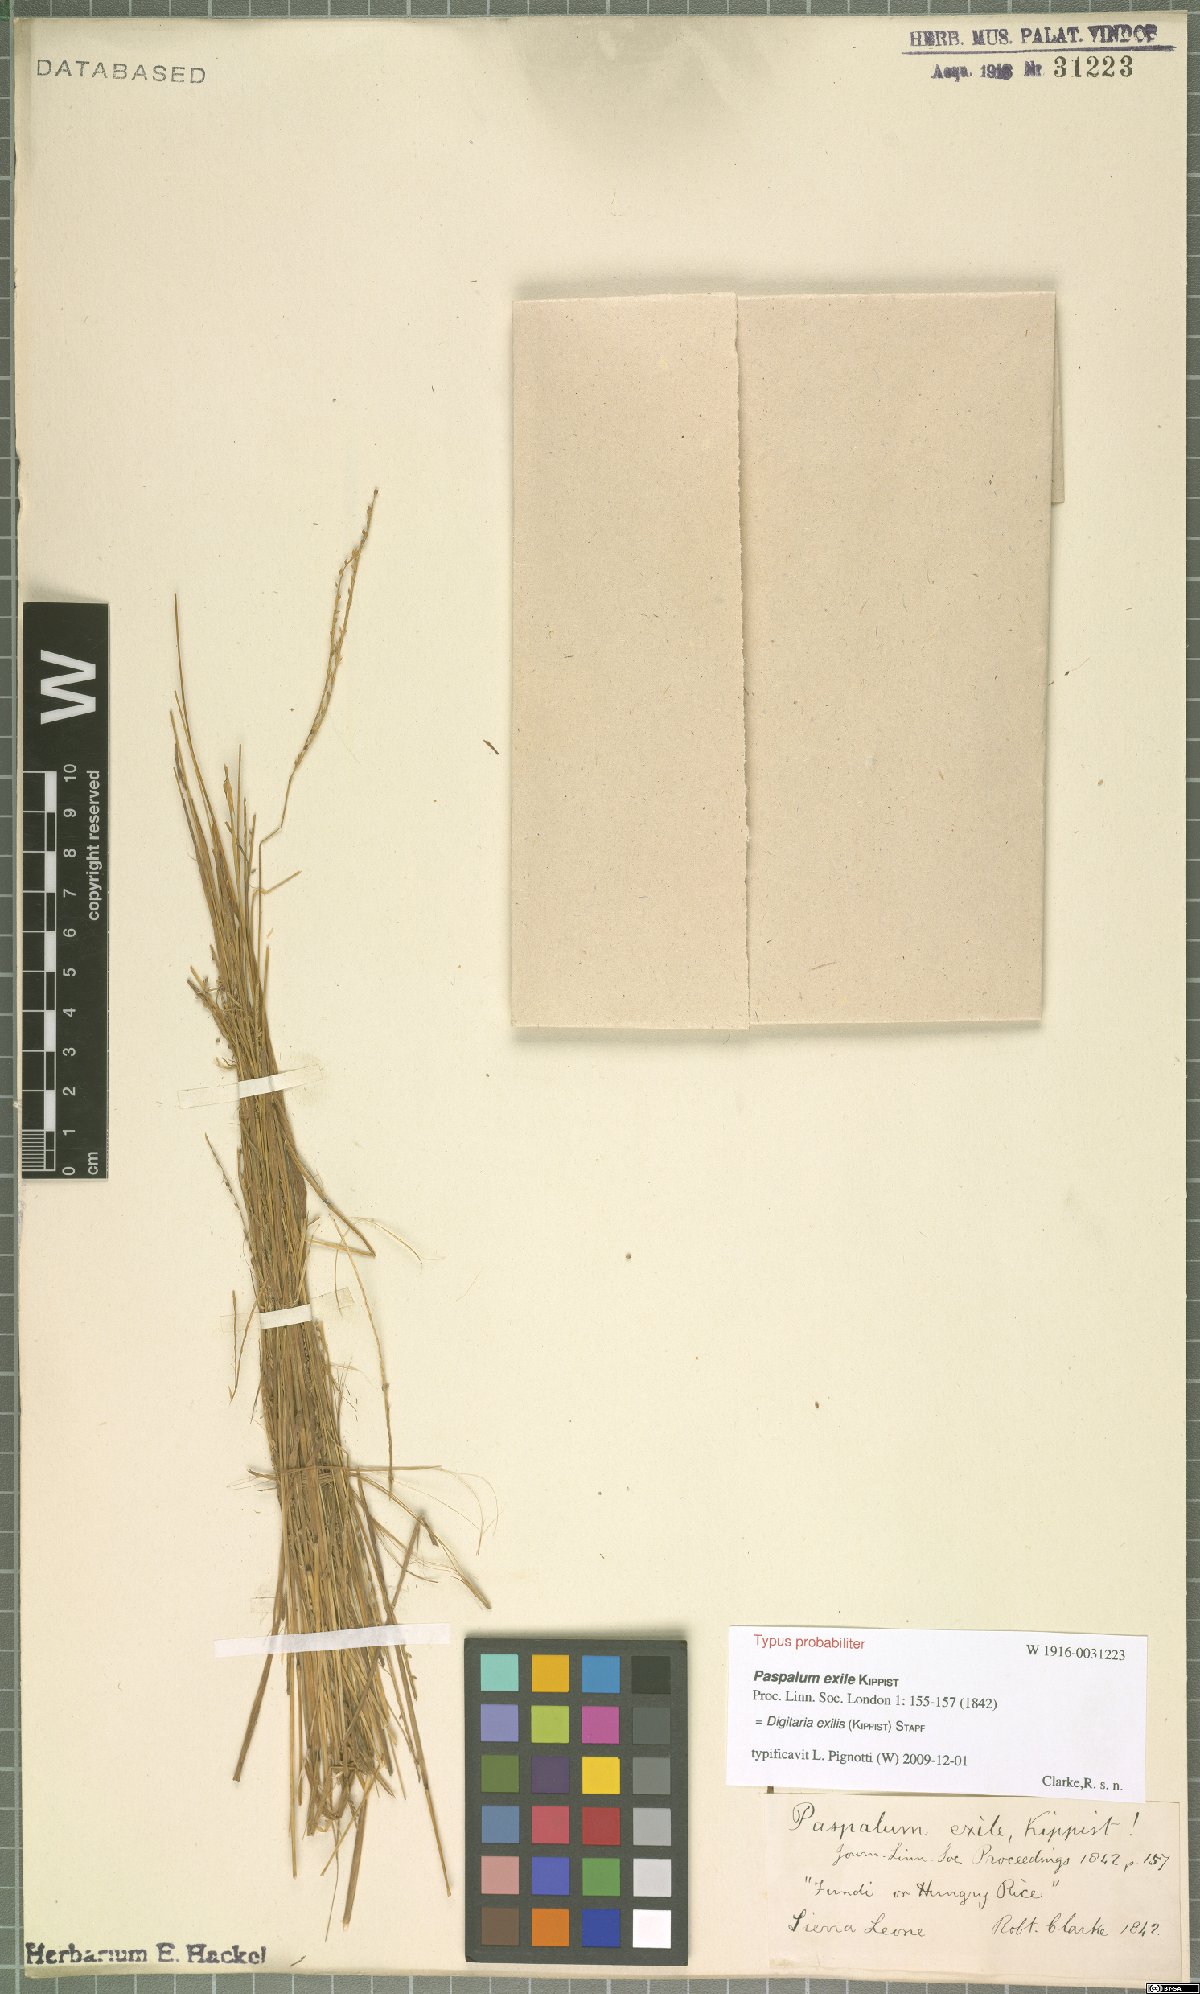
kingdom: Plantae
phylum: Tracheophyta
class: Liliopsida
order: Poales
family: Poaceae
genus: Digitaria
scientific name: Digitaria exilis
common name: Fonio millet
